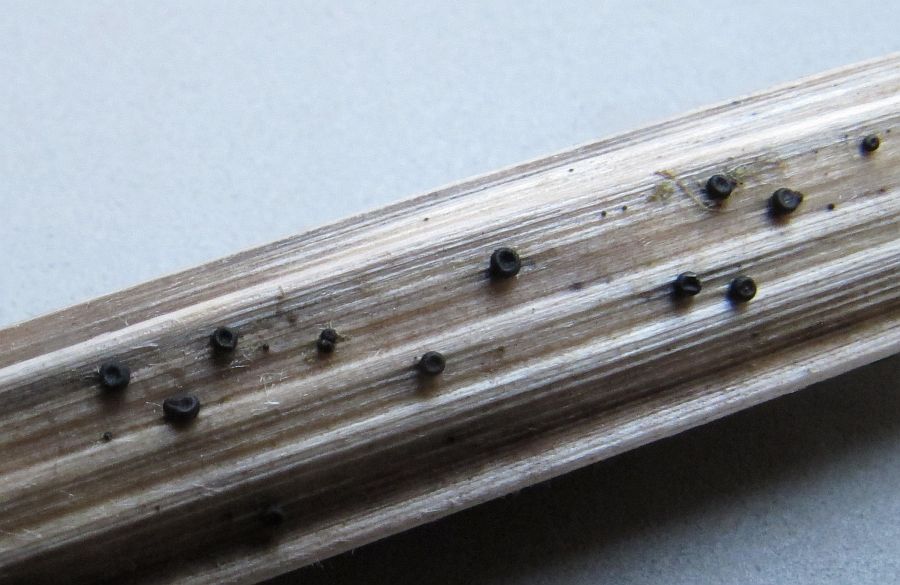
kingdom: Fungi
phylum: Ascomycota
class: Leotiomycetes
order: Helotiales
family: Heterosphaeriaceae
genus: Heterosphaeria
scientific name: Heterosphaeria
